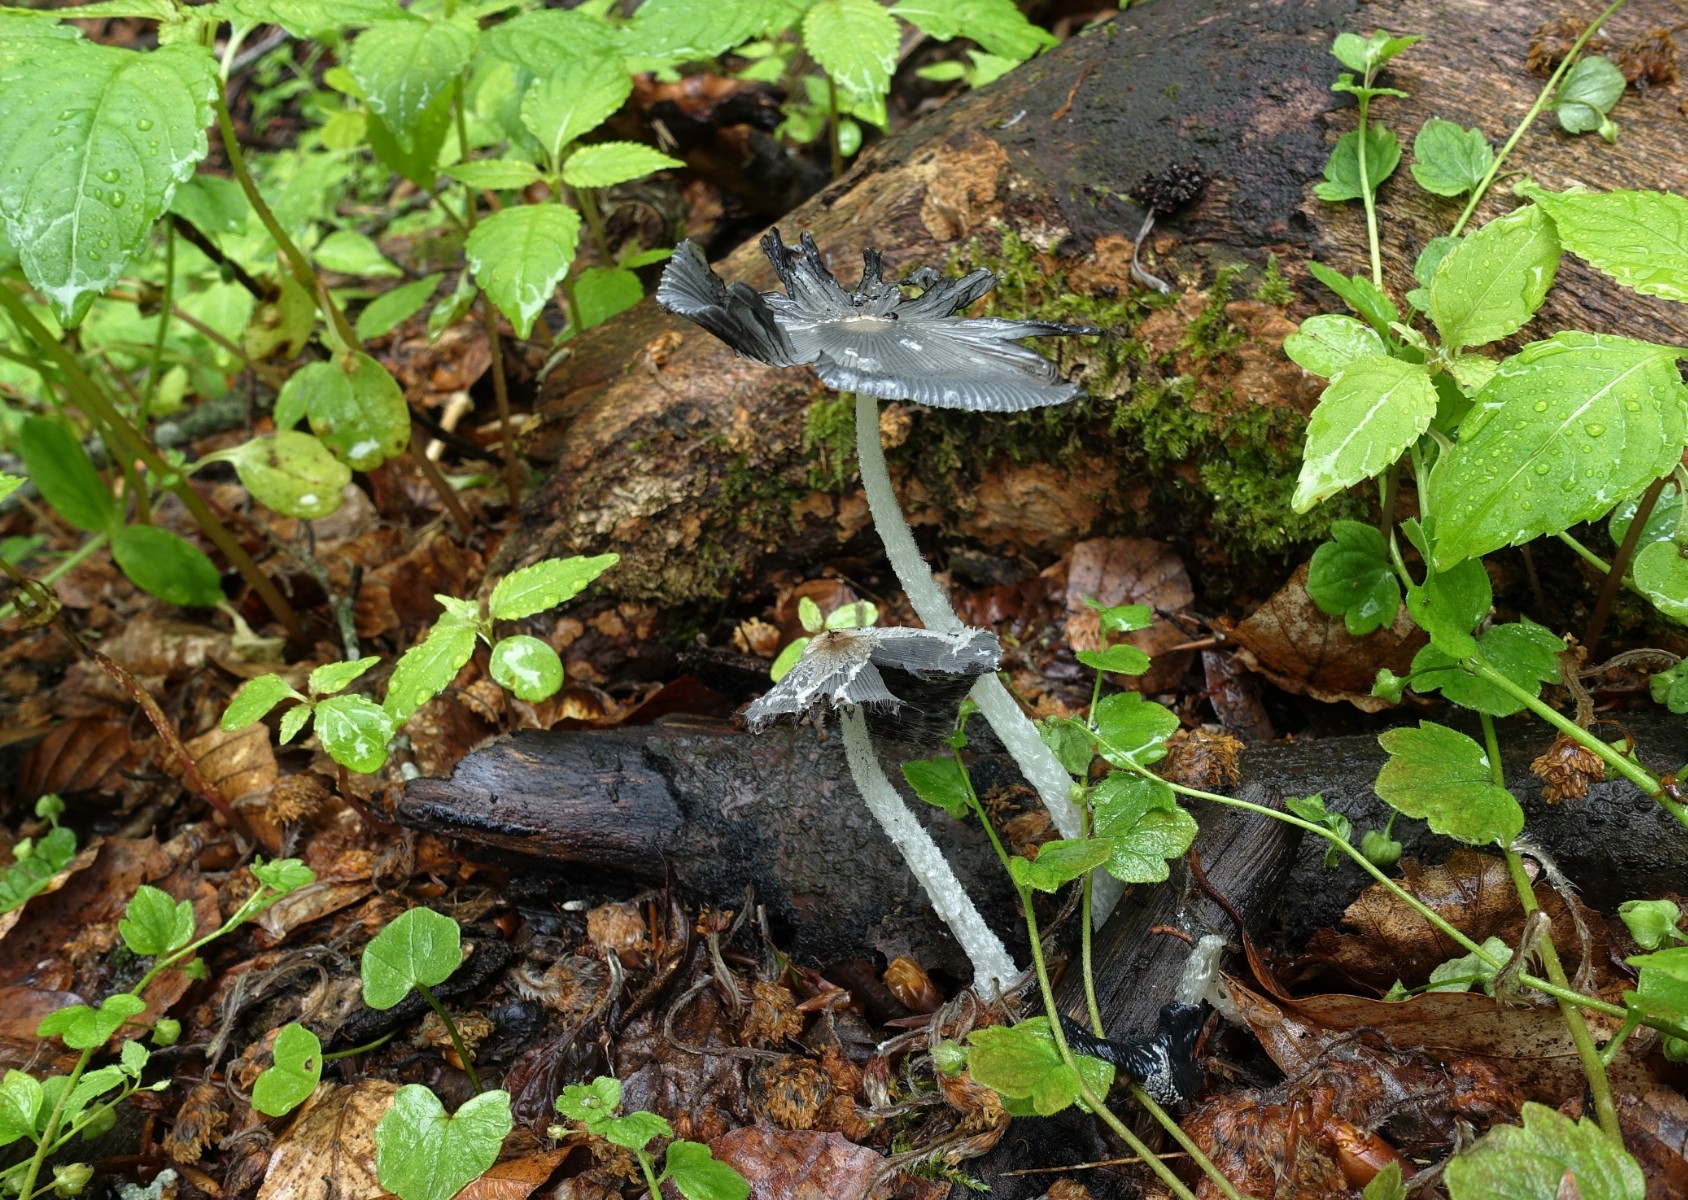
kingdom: Fungi
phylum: Basidiomycota
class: Agaricomycetes
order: Agaricales
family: Psathyrellaceae
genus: Coprinopsis
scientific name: Coprinopsis lagopus
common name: dunstokket blækhat
